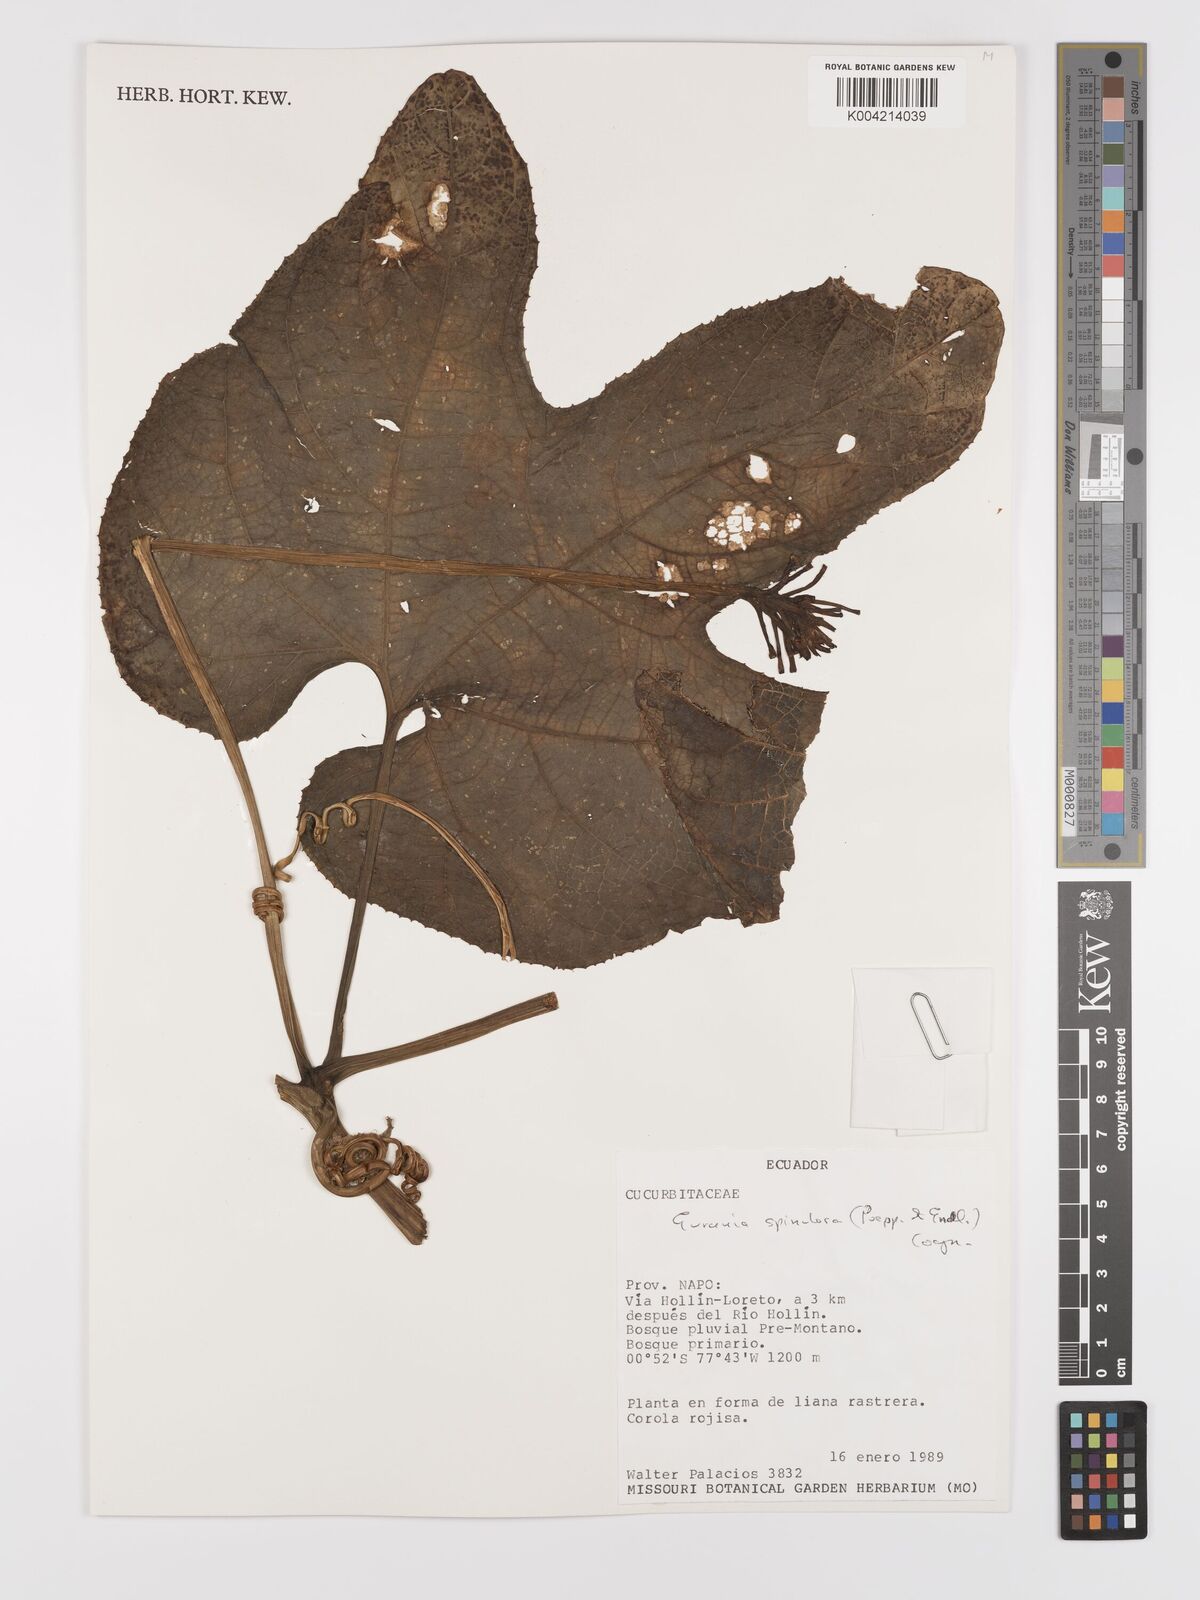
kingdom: Plantae
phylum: Tracheophyta
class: Magnoliopsida
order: Cucurbitales
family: Cucurbitaceae
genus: Gurania
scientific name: Gurania lobata
